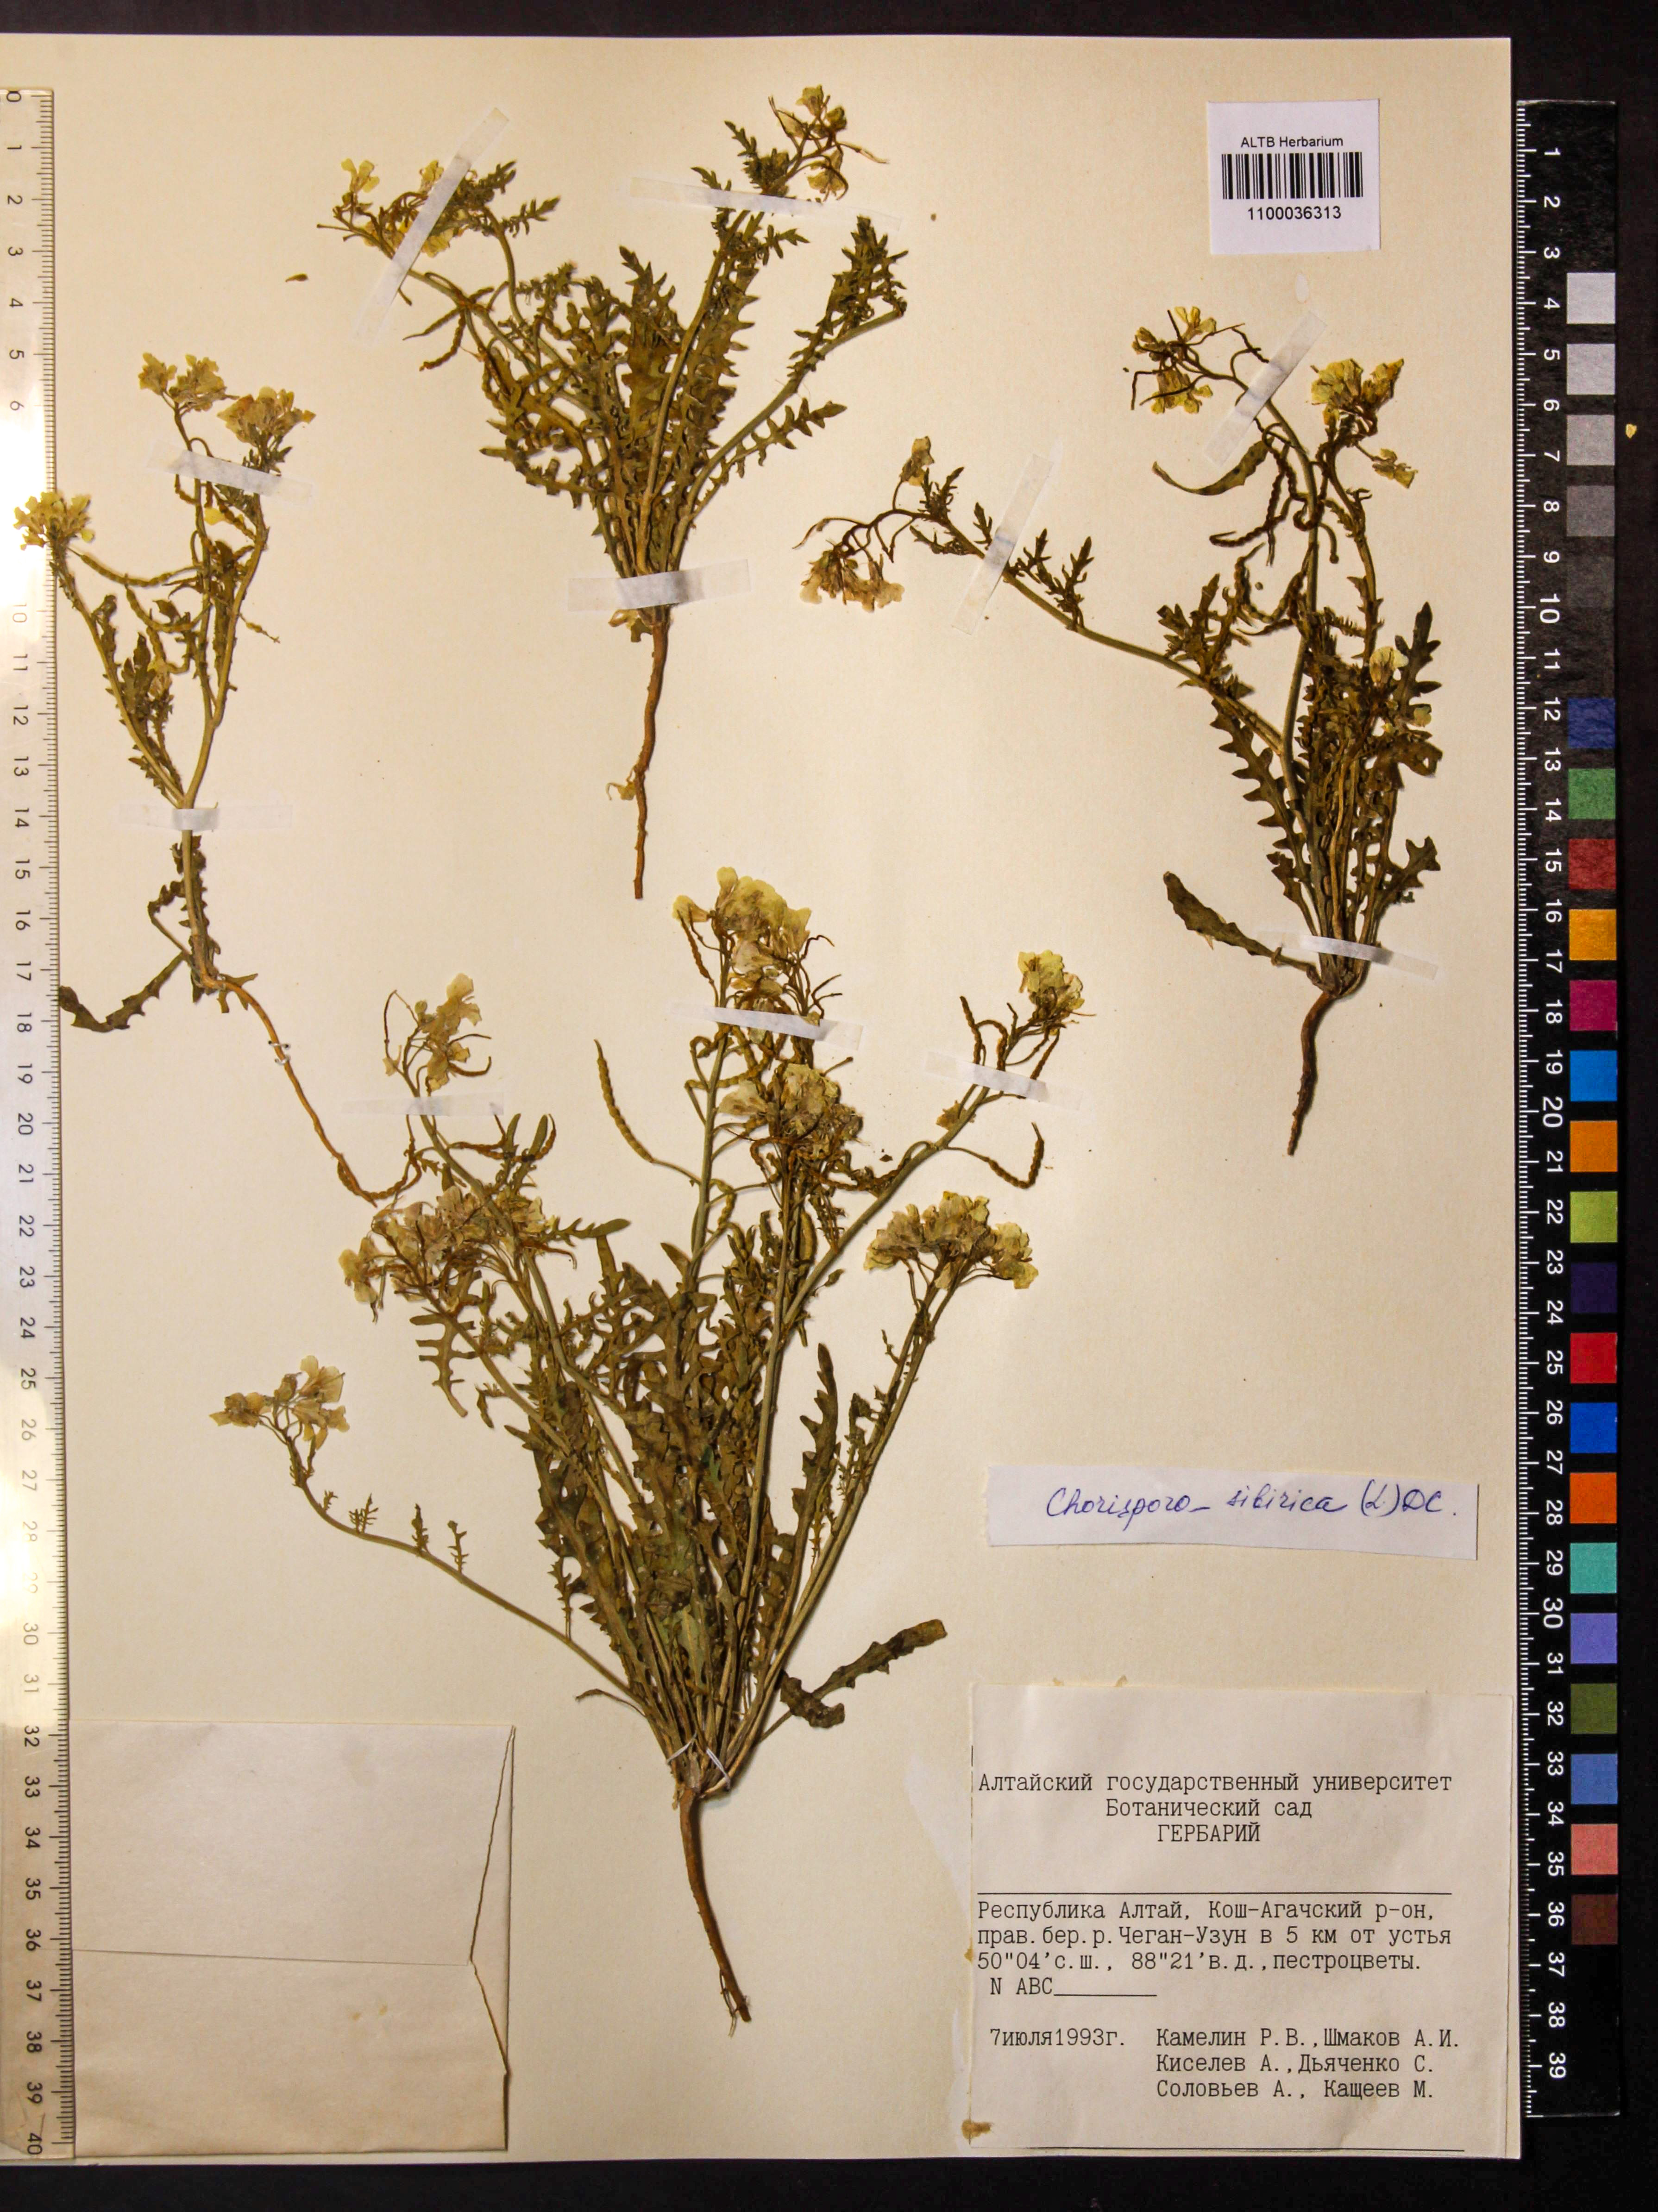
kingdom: Plantae
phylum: Tracheophyta
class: Magnoliopsida
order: Brassicales
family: Brassicaceae
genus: Chorispora
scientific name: Chorispora sibirica
